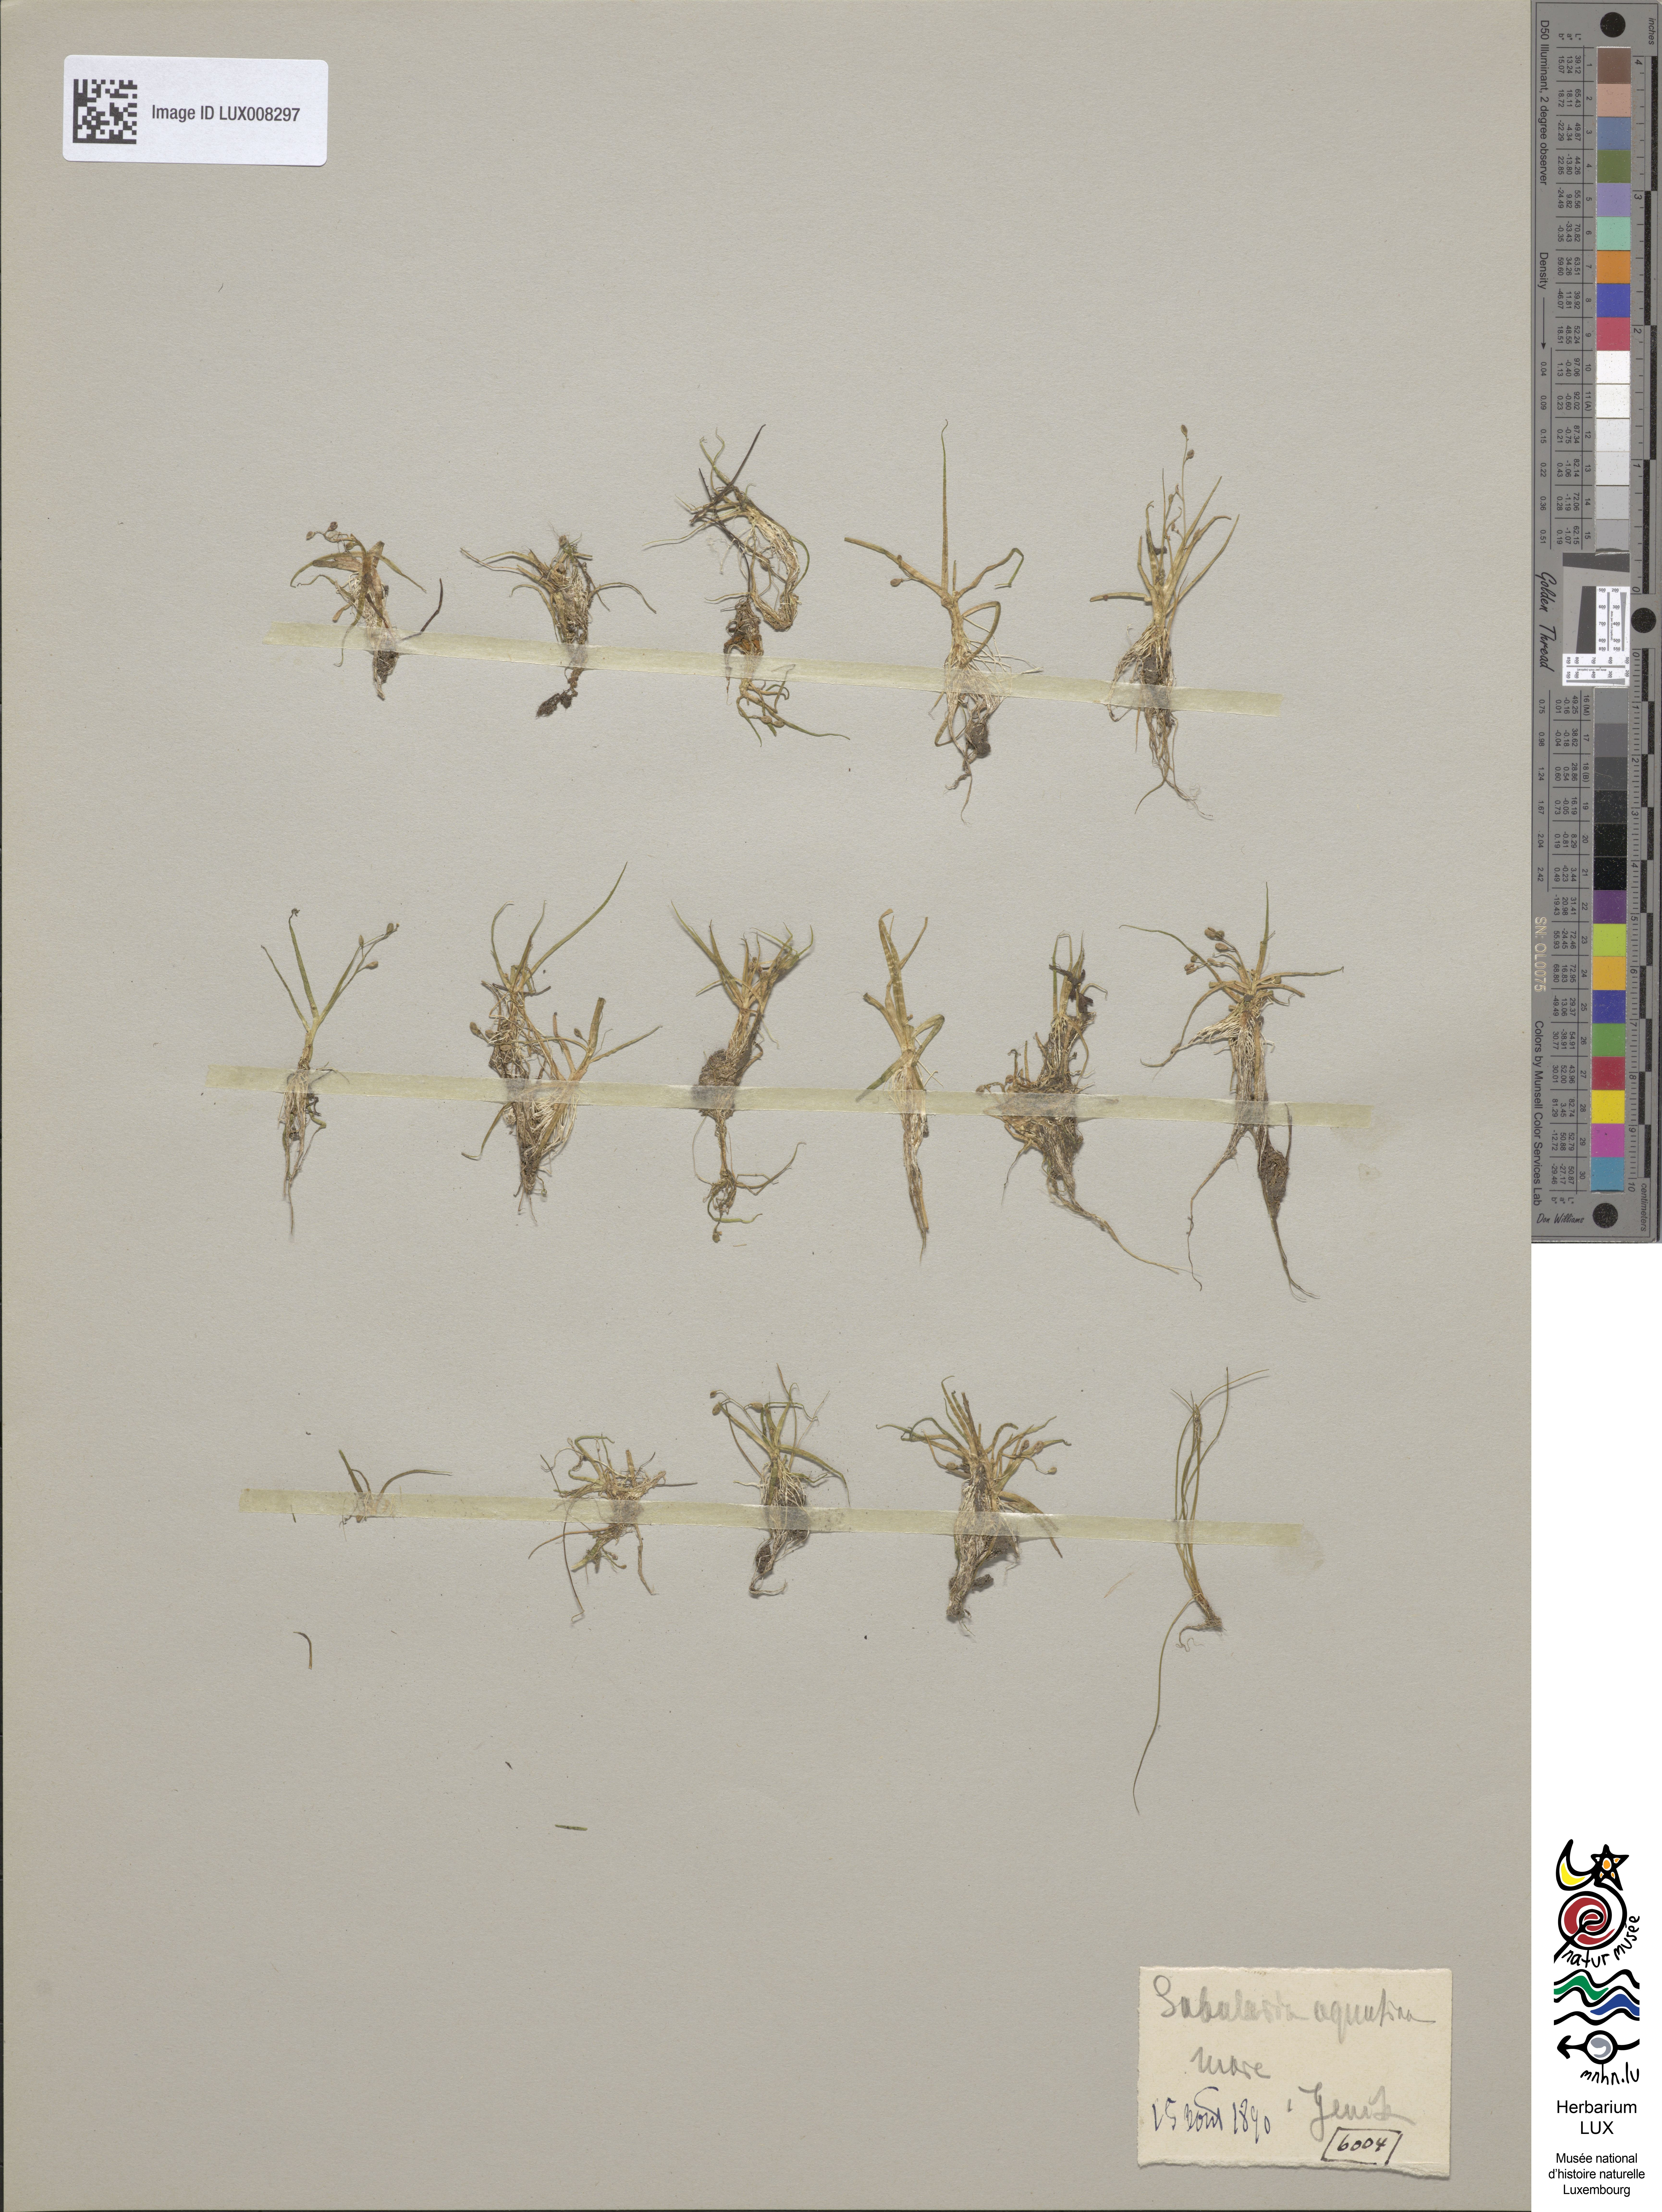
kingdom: Plantae
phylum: Tracheophyta
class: Magnoliopsida
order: Brassicales
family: Brassicaceae
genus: Subularia
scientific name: Subularia aquatica
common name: Awlwort
